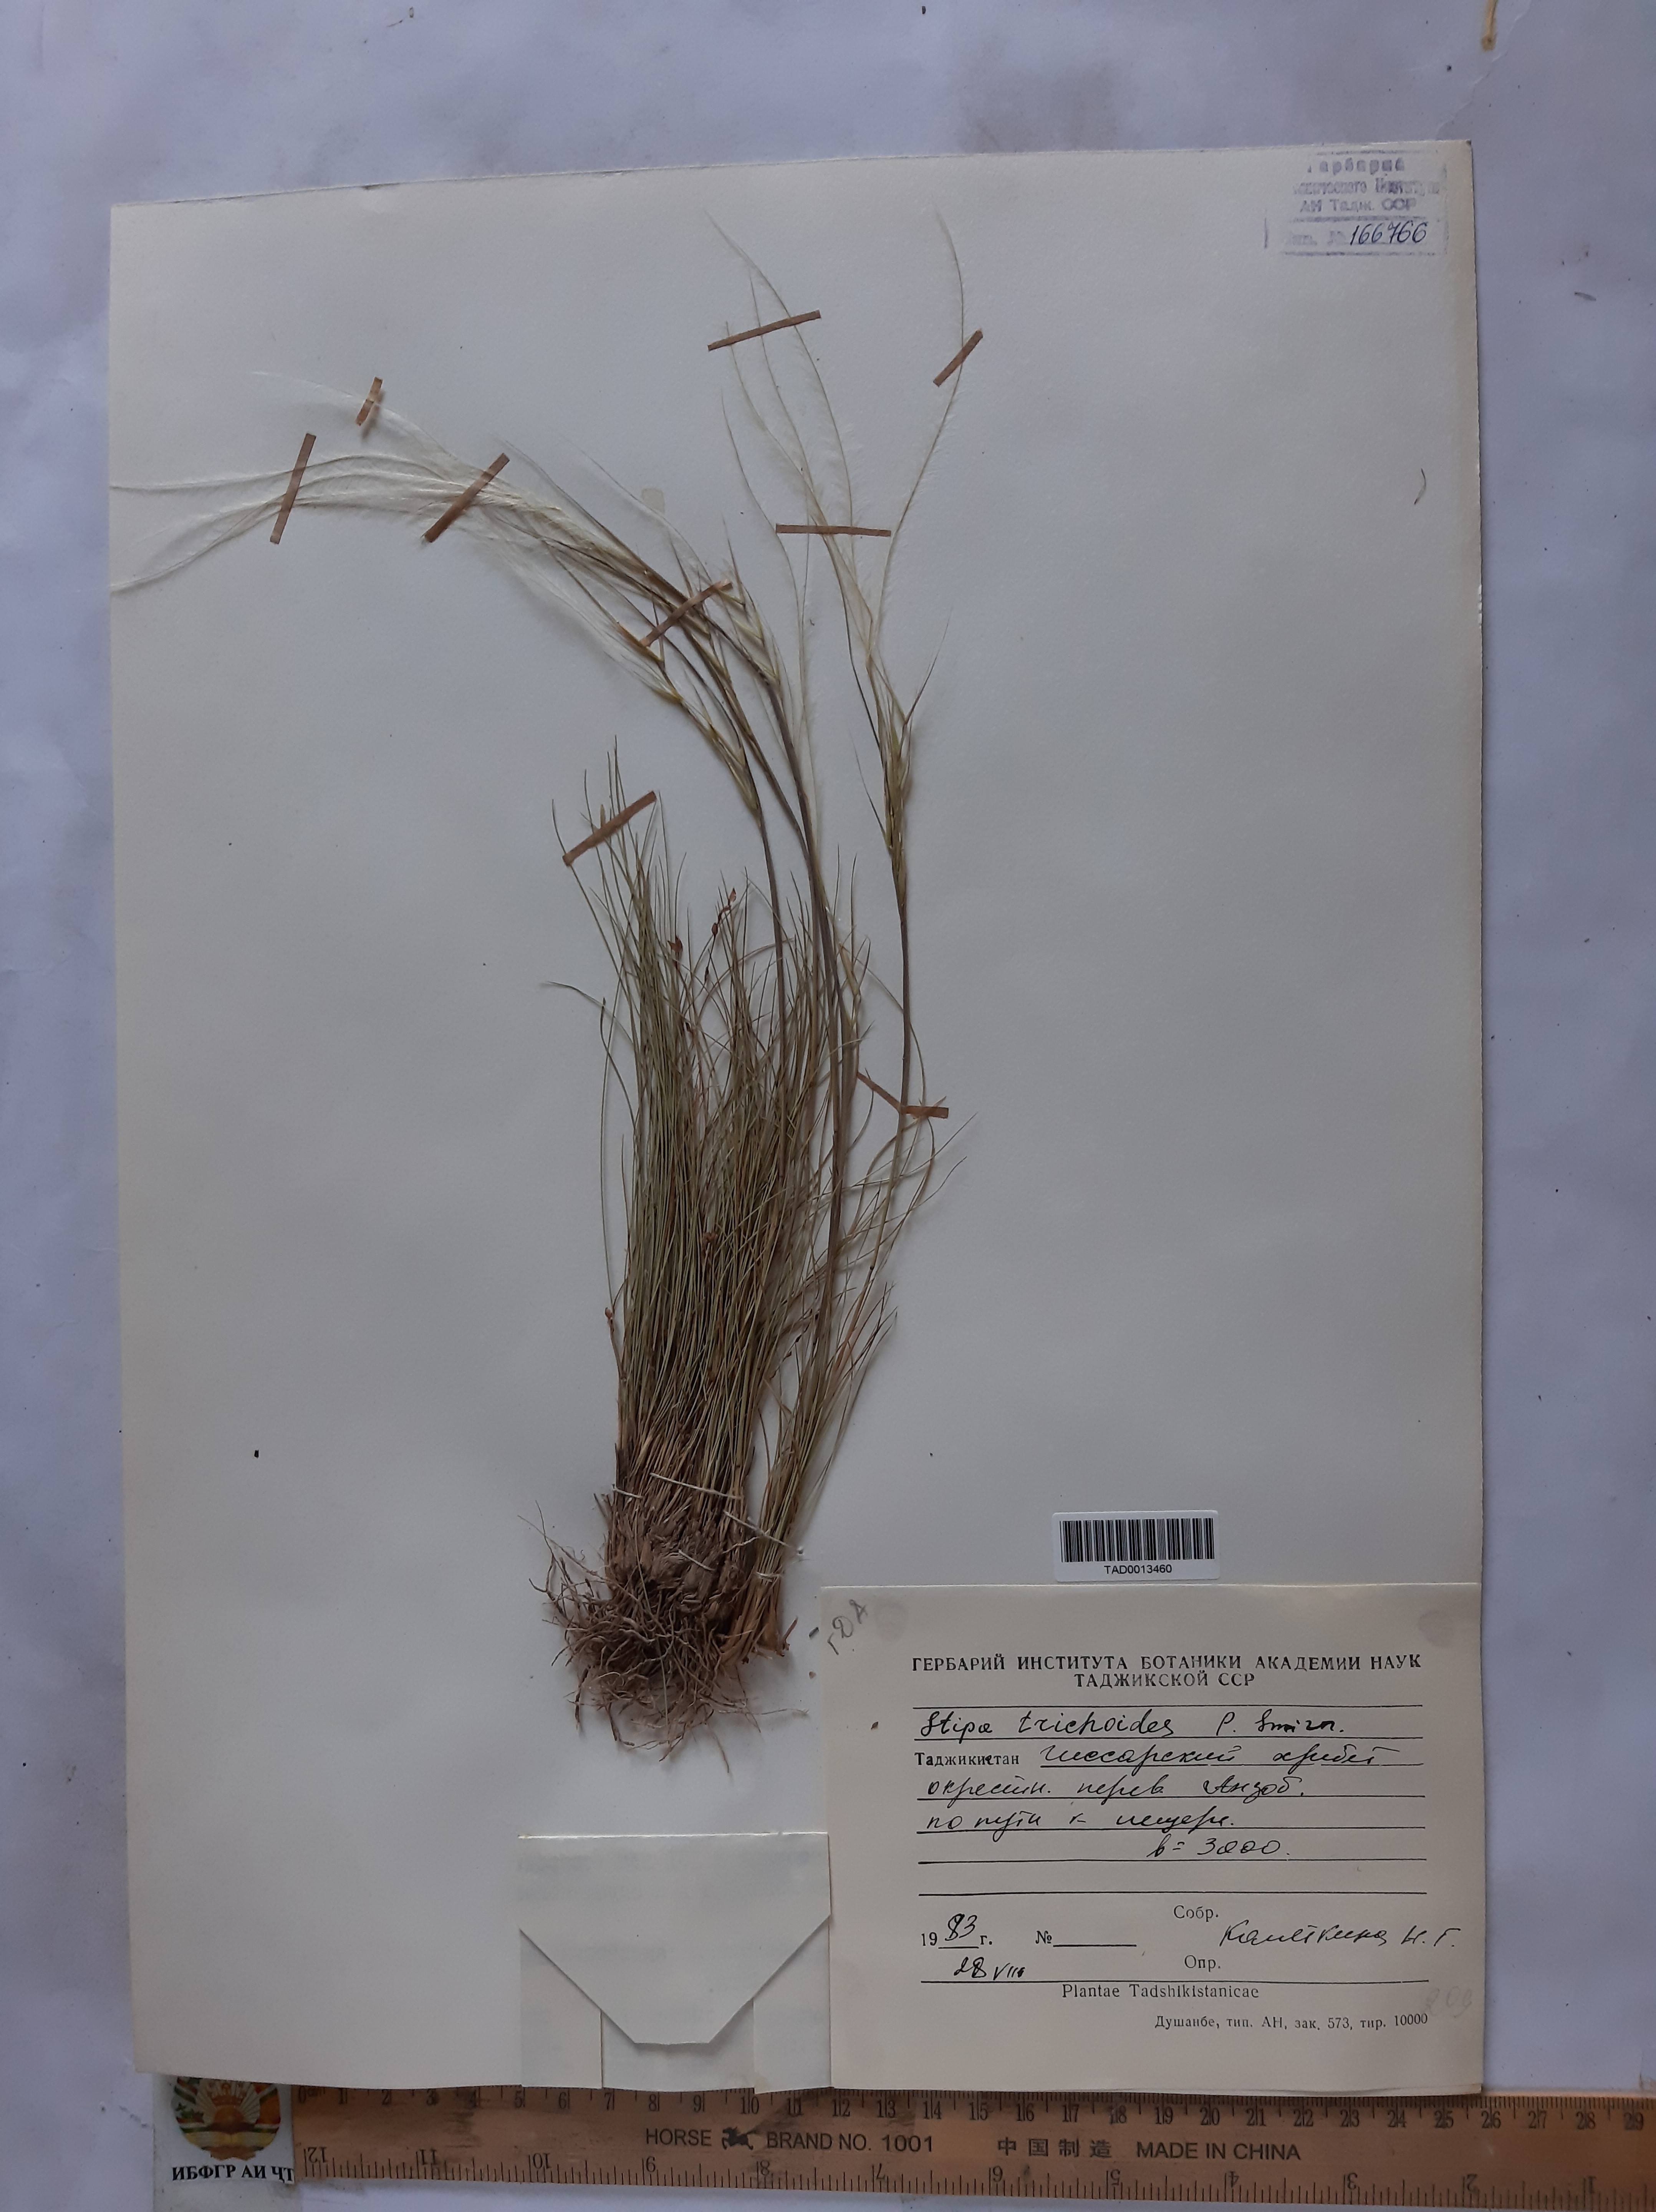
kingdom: Plantae
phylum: Tracheophyta
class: Liliopsida
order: Poales
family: Poaceae
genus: Stipa
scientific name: Stipa trichoides
